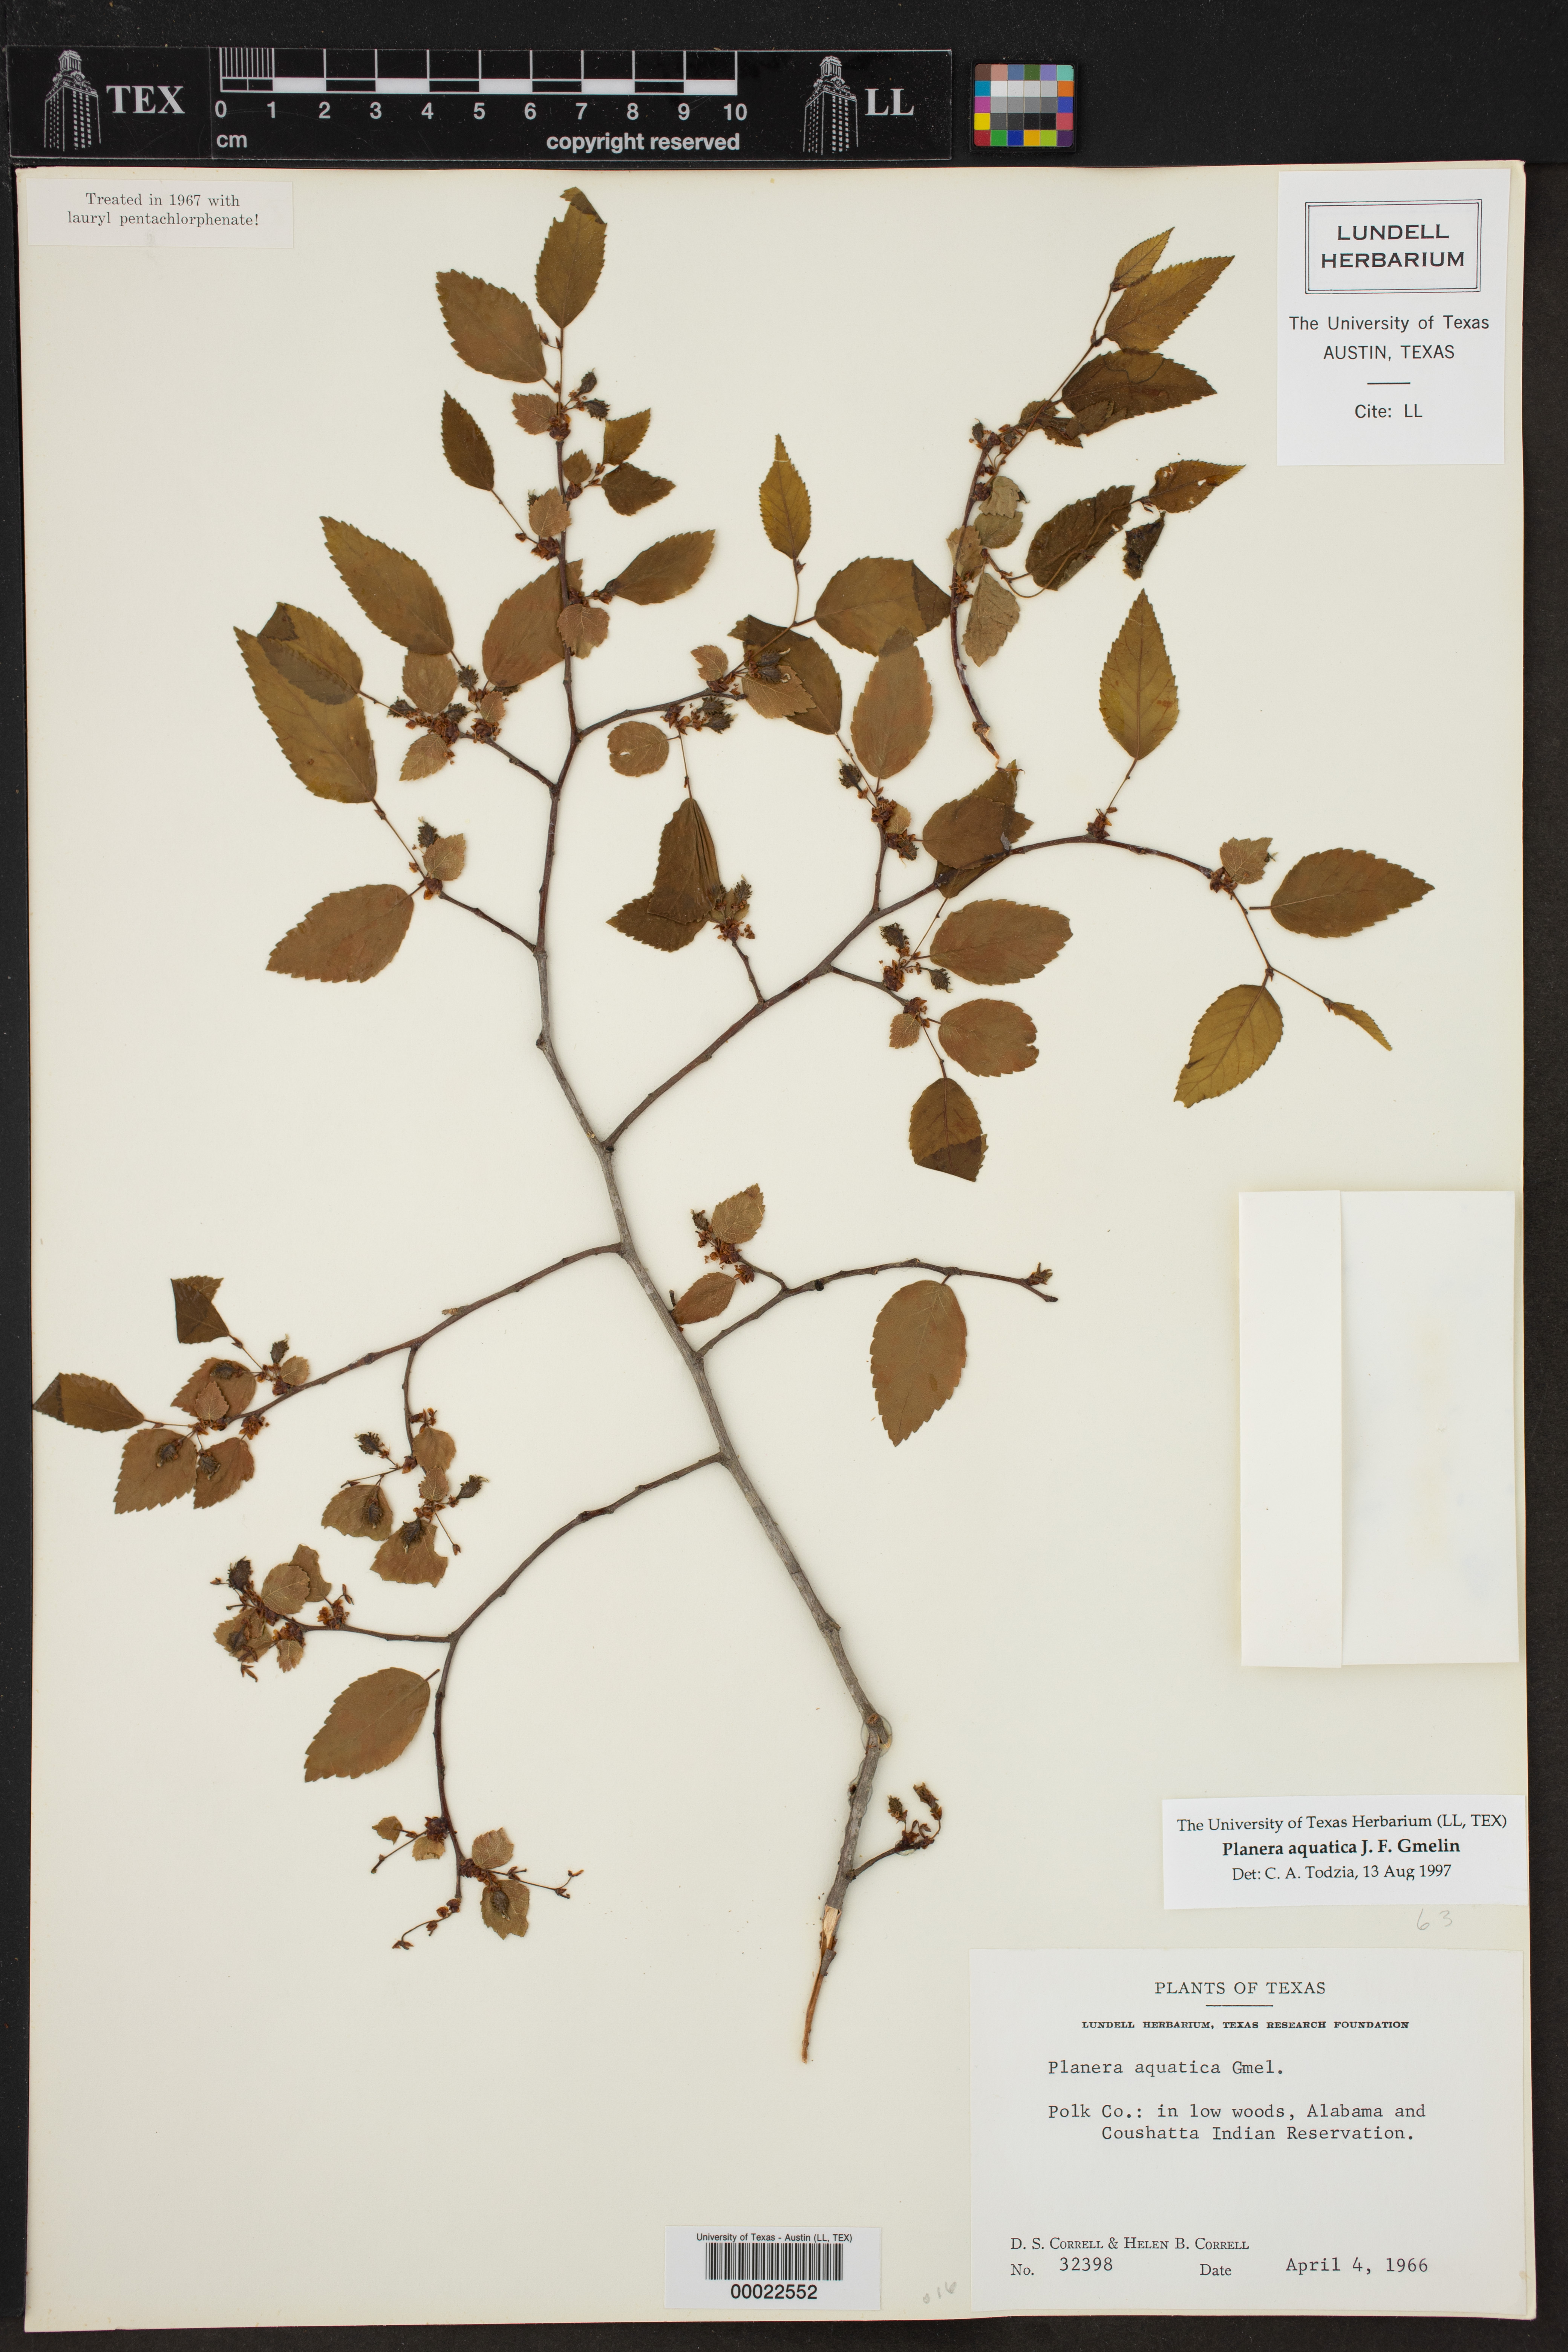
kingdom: Plantae
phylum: Tracheophyta
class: Magnoliopsida
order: Rosales
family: Ulmaceae
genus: Planera
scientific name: Planera aquatica
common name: Water-elm
